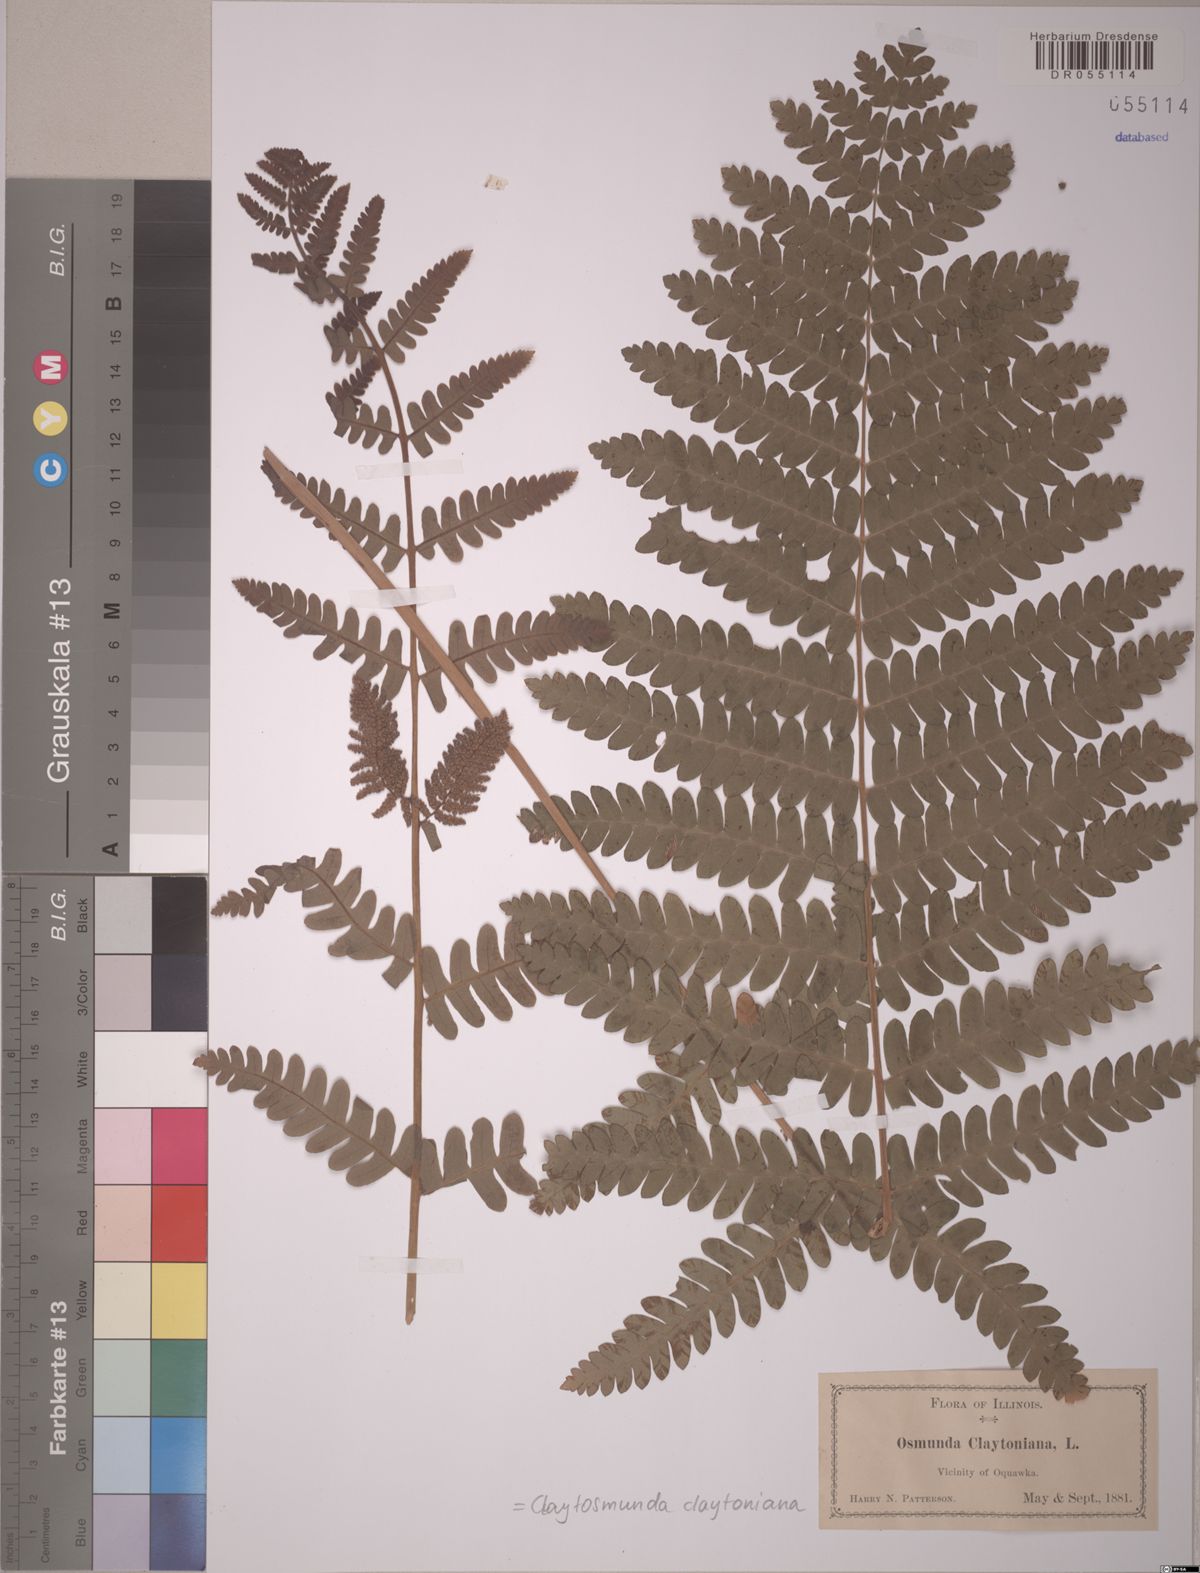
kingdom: Plantae
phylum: Tracheophyta
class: Polypodiopsida
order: Osmundales
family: Osmundaceae
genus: Claytosmunda
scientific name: Claytosmunda claytoniana
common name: Clayton's fern
